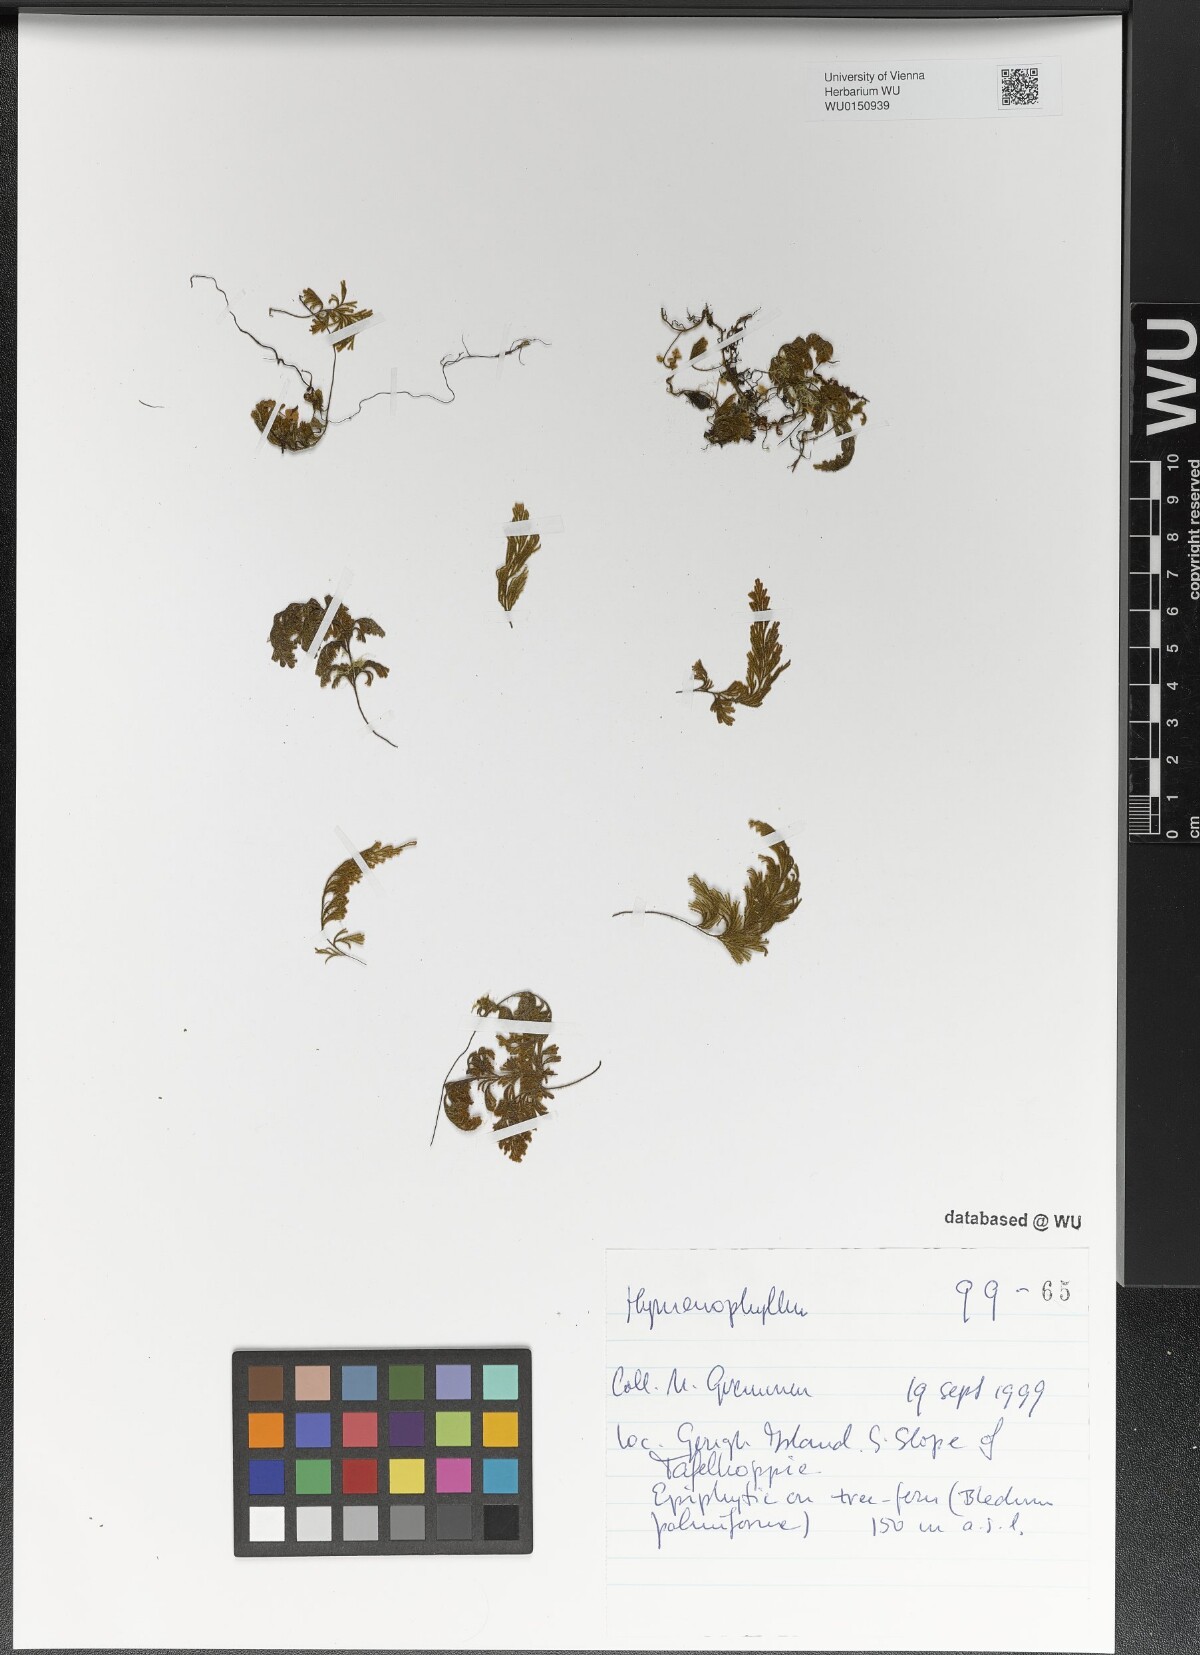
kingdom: Plantae
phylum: Tracheophyta
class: Polypodiopsida
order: Hymenophyllales
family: Hymenophyllaceae
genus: Hymenophyllum
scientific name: Hymenophyllum
